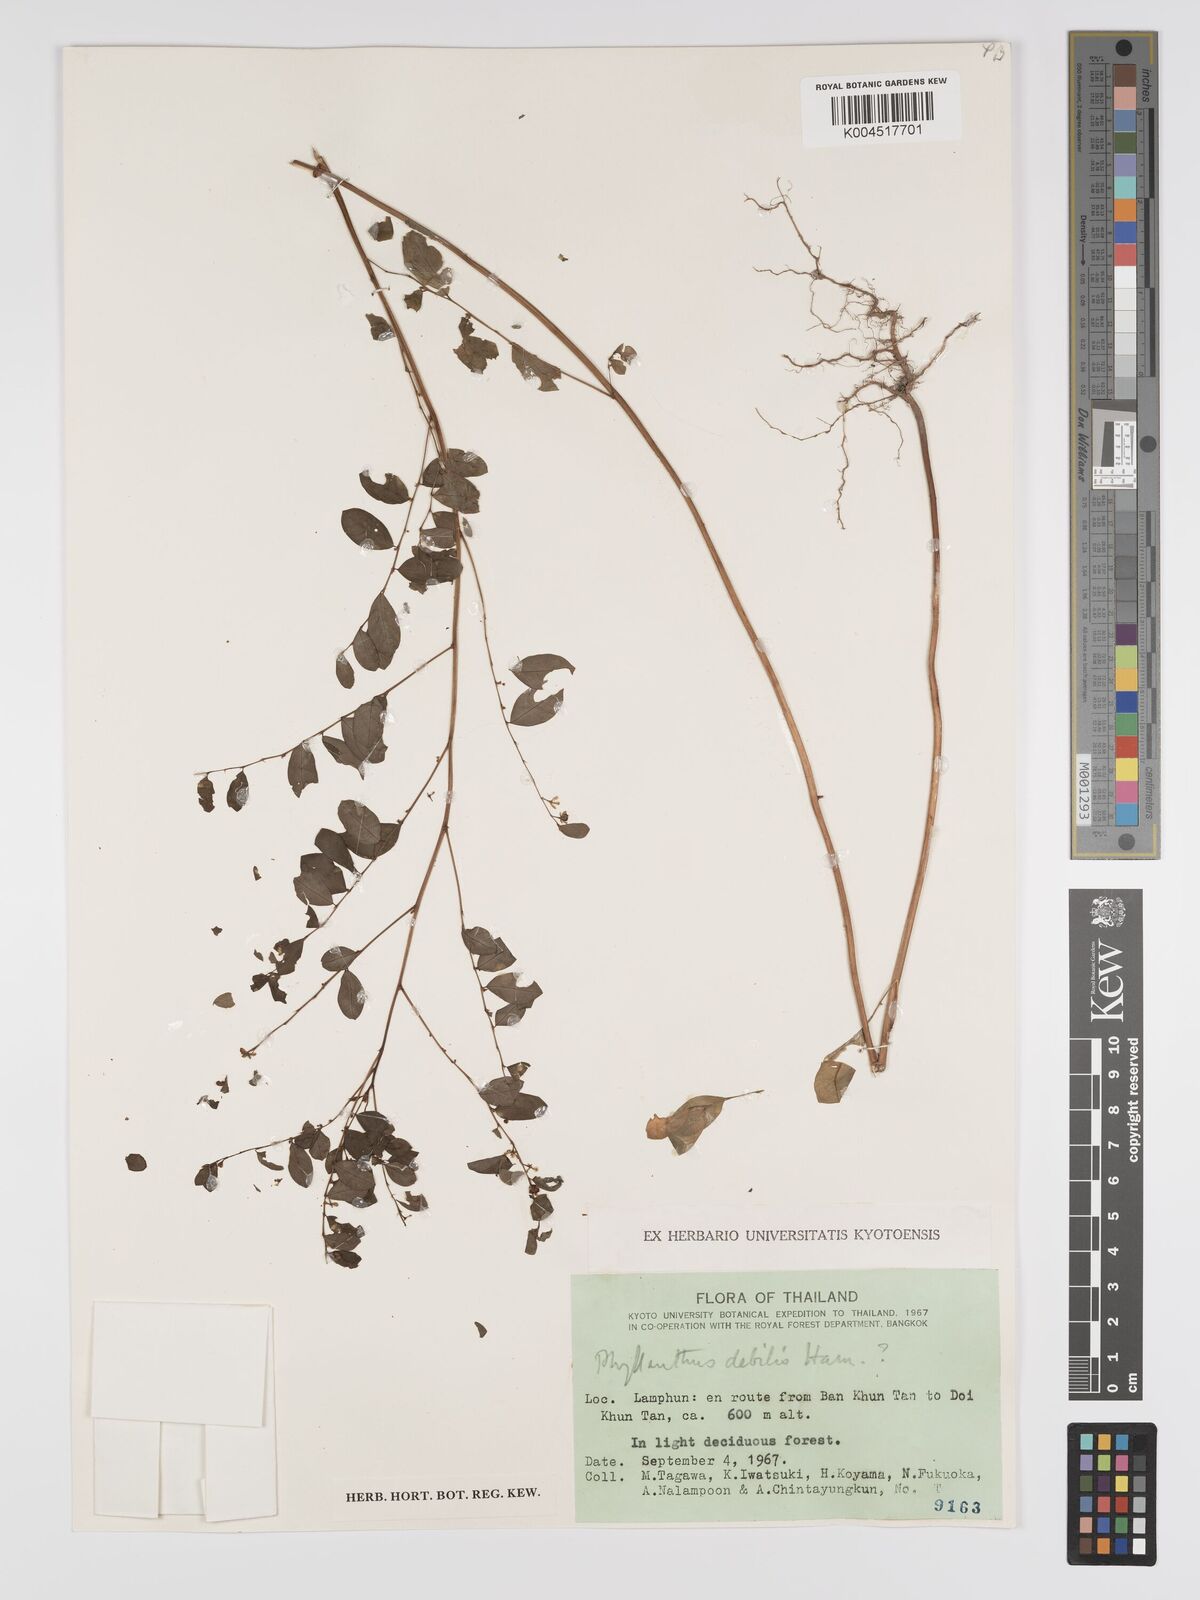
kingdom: Plantae
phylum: Tracheophyta
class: Magnoliopsida
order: Malpighiales
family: Phyllanthaceae
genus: Phyllanthus
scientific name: Phyllanthus
